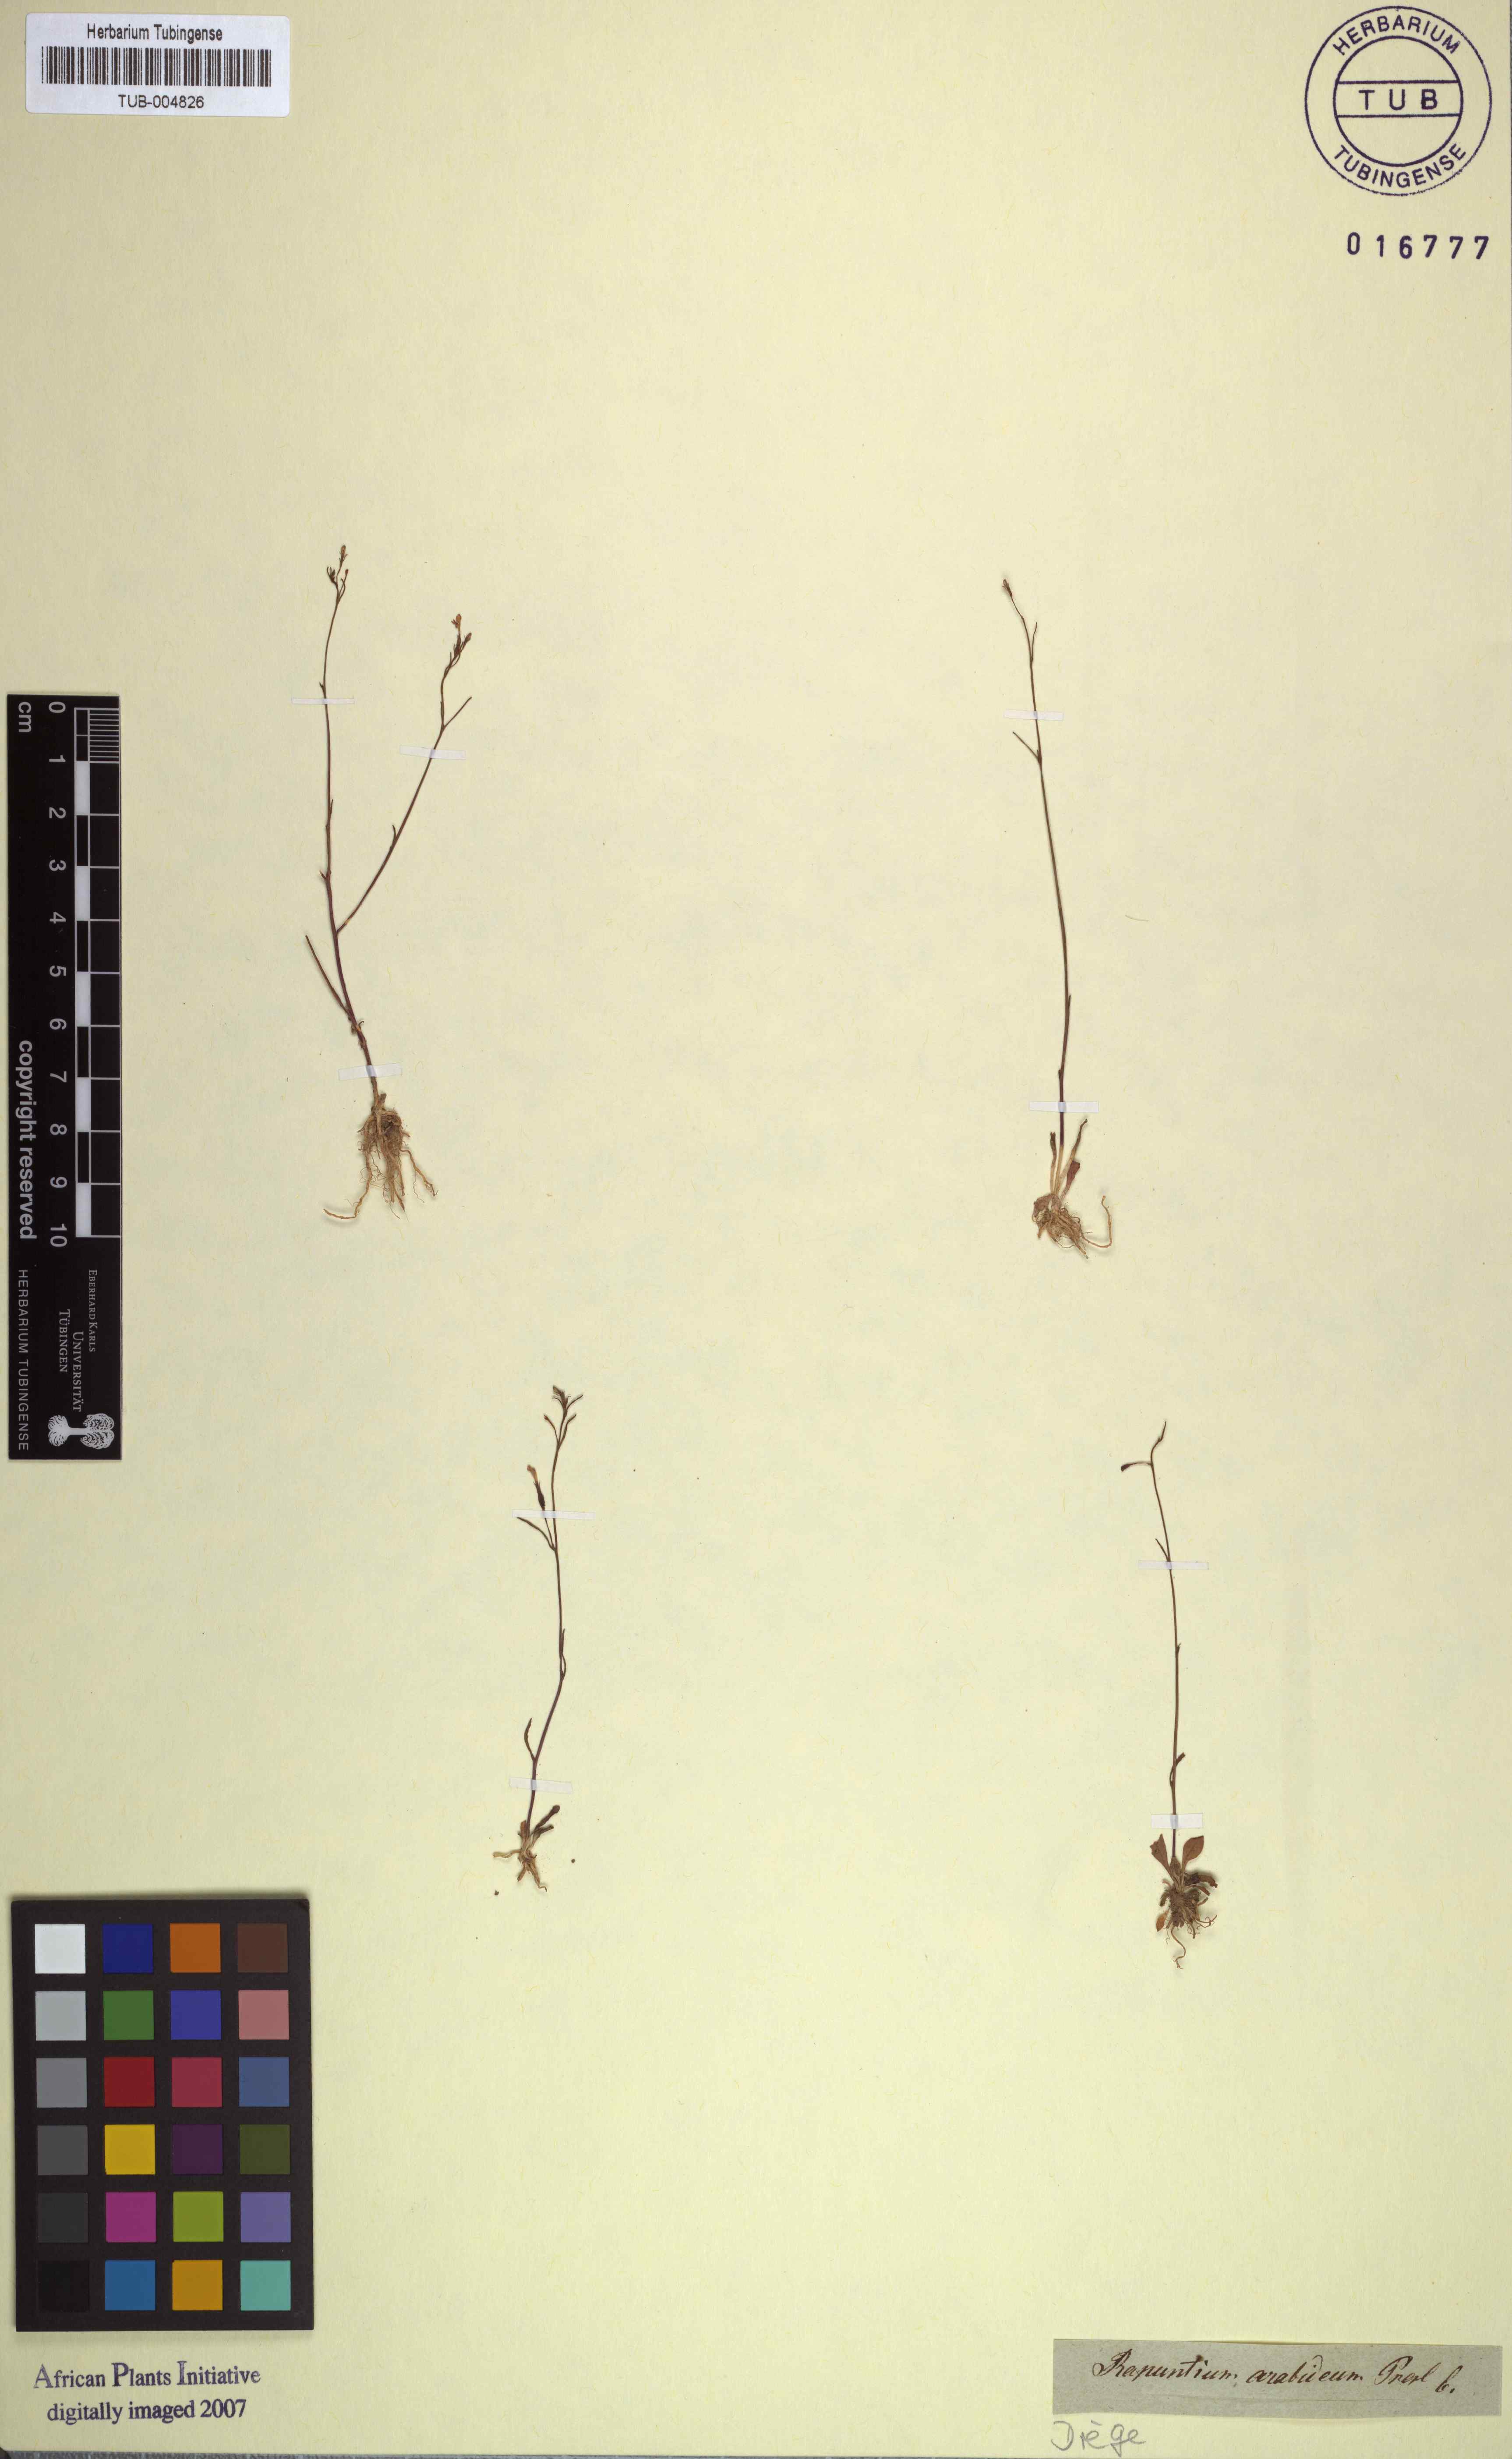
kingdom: Plantae
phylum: Tracheophyta
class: Magnoliopsida
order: Asterales
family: Campanulaceae
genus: Wimmerella
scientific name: Wimmerella arabidea
